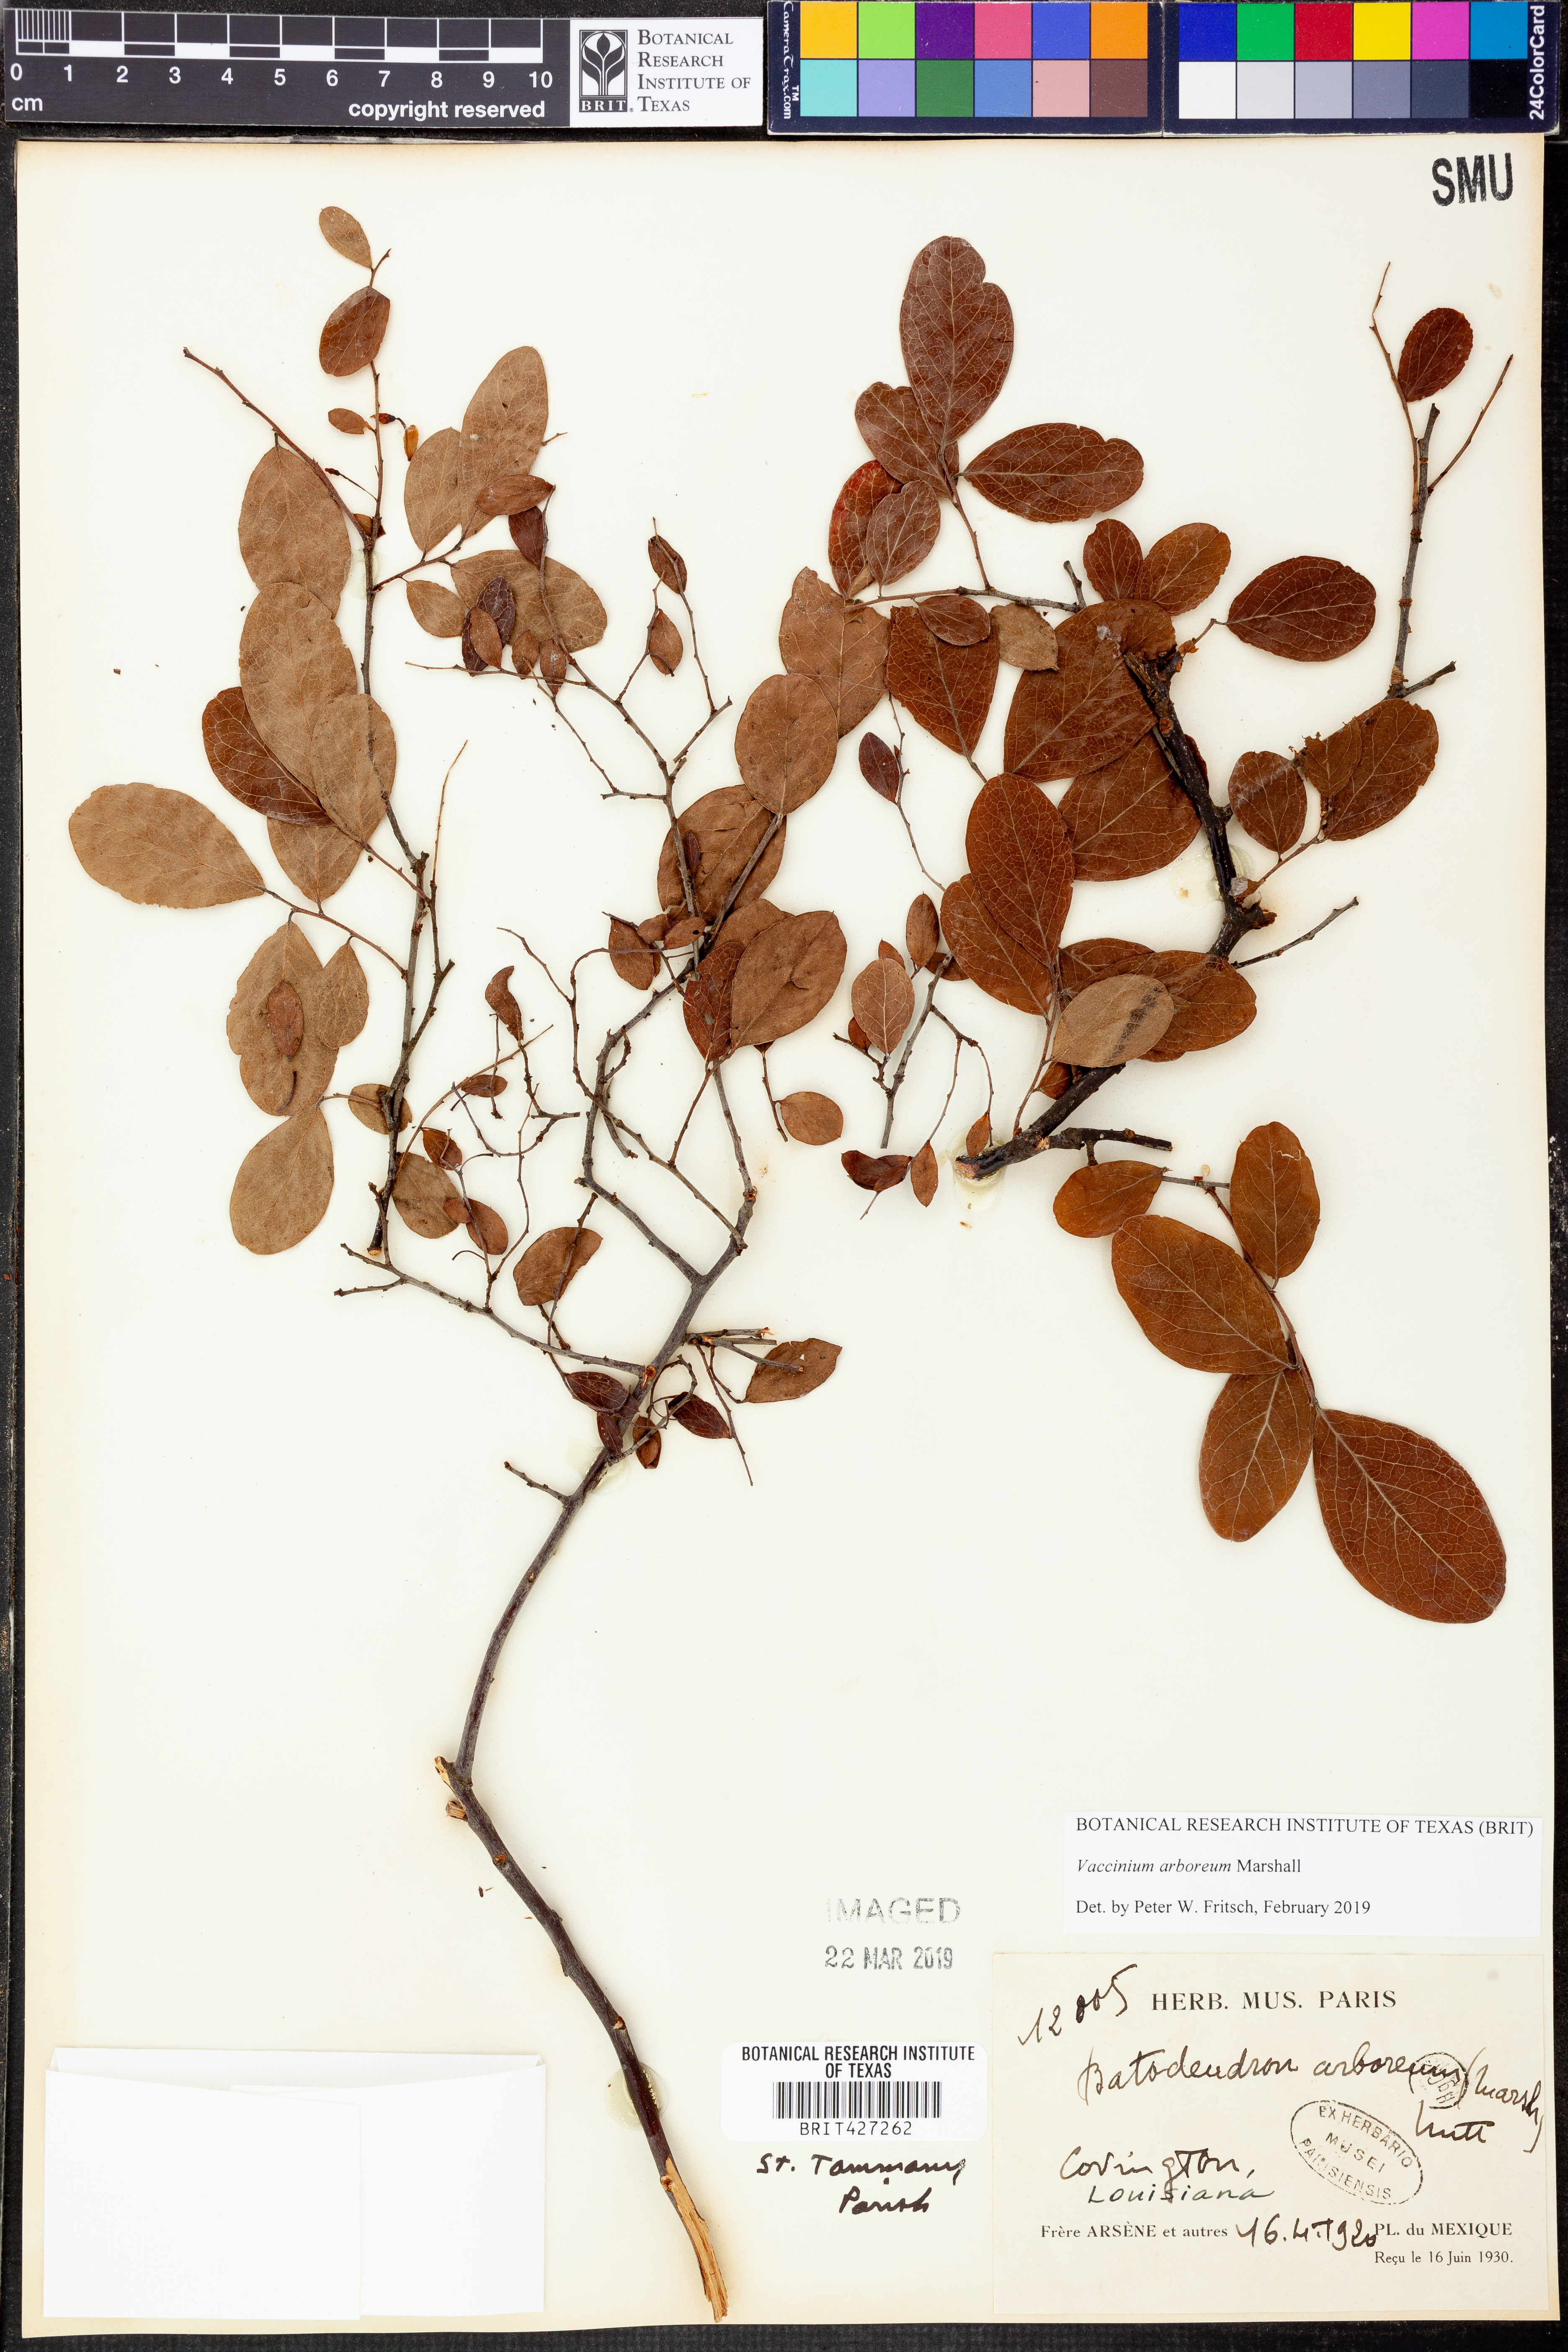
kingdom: Plantae
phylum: Tracheophyta
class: Magnoliopsida
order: Ericales
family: Ericaceae
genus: Vaccinium
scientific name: Vaccinium arboreum
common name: Farkleberry
